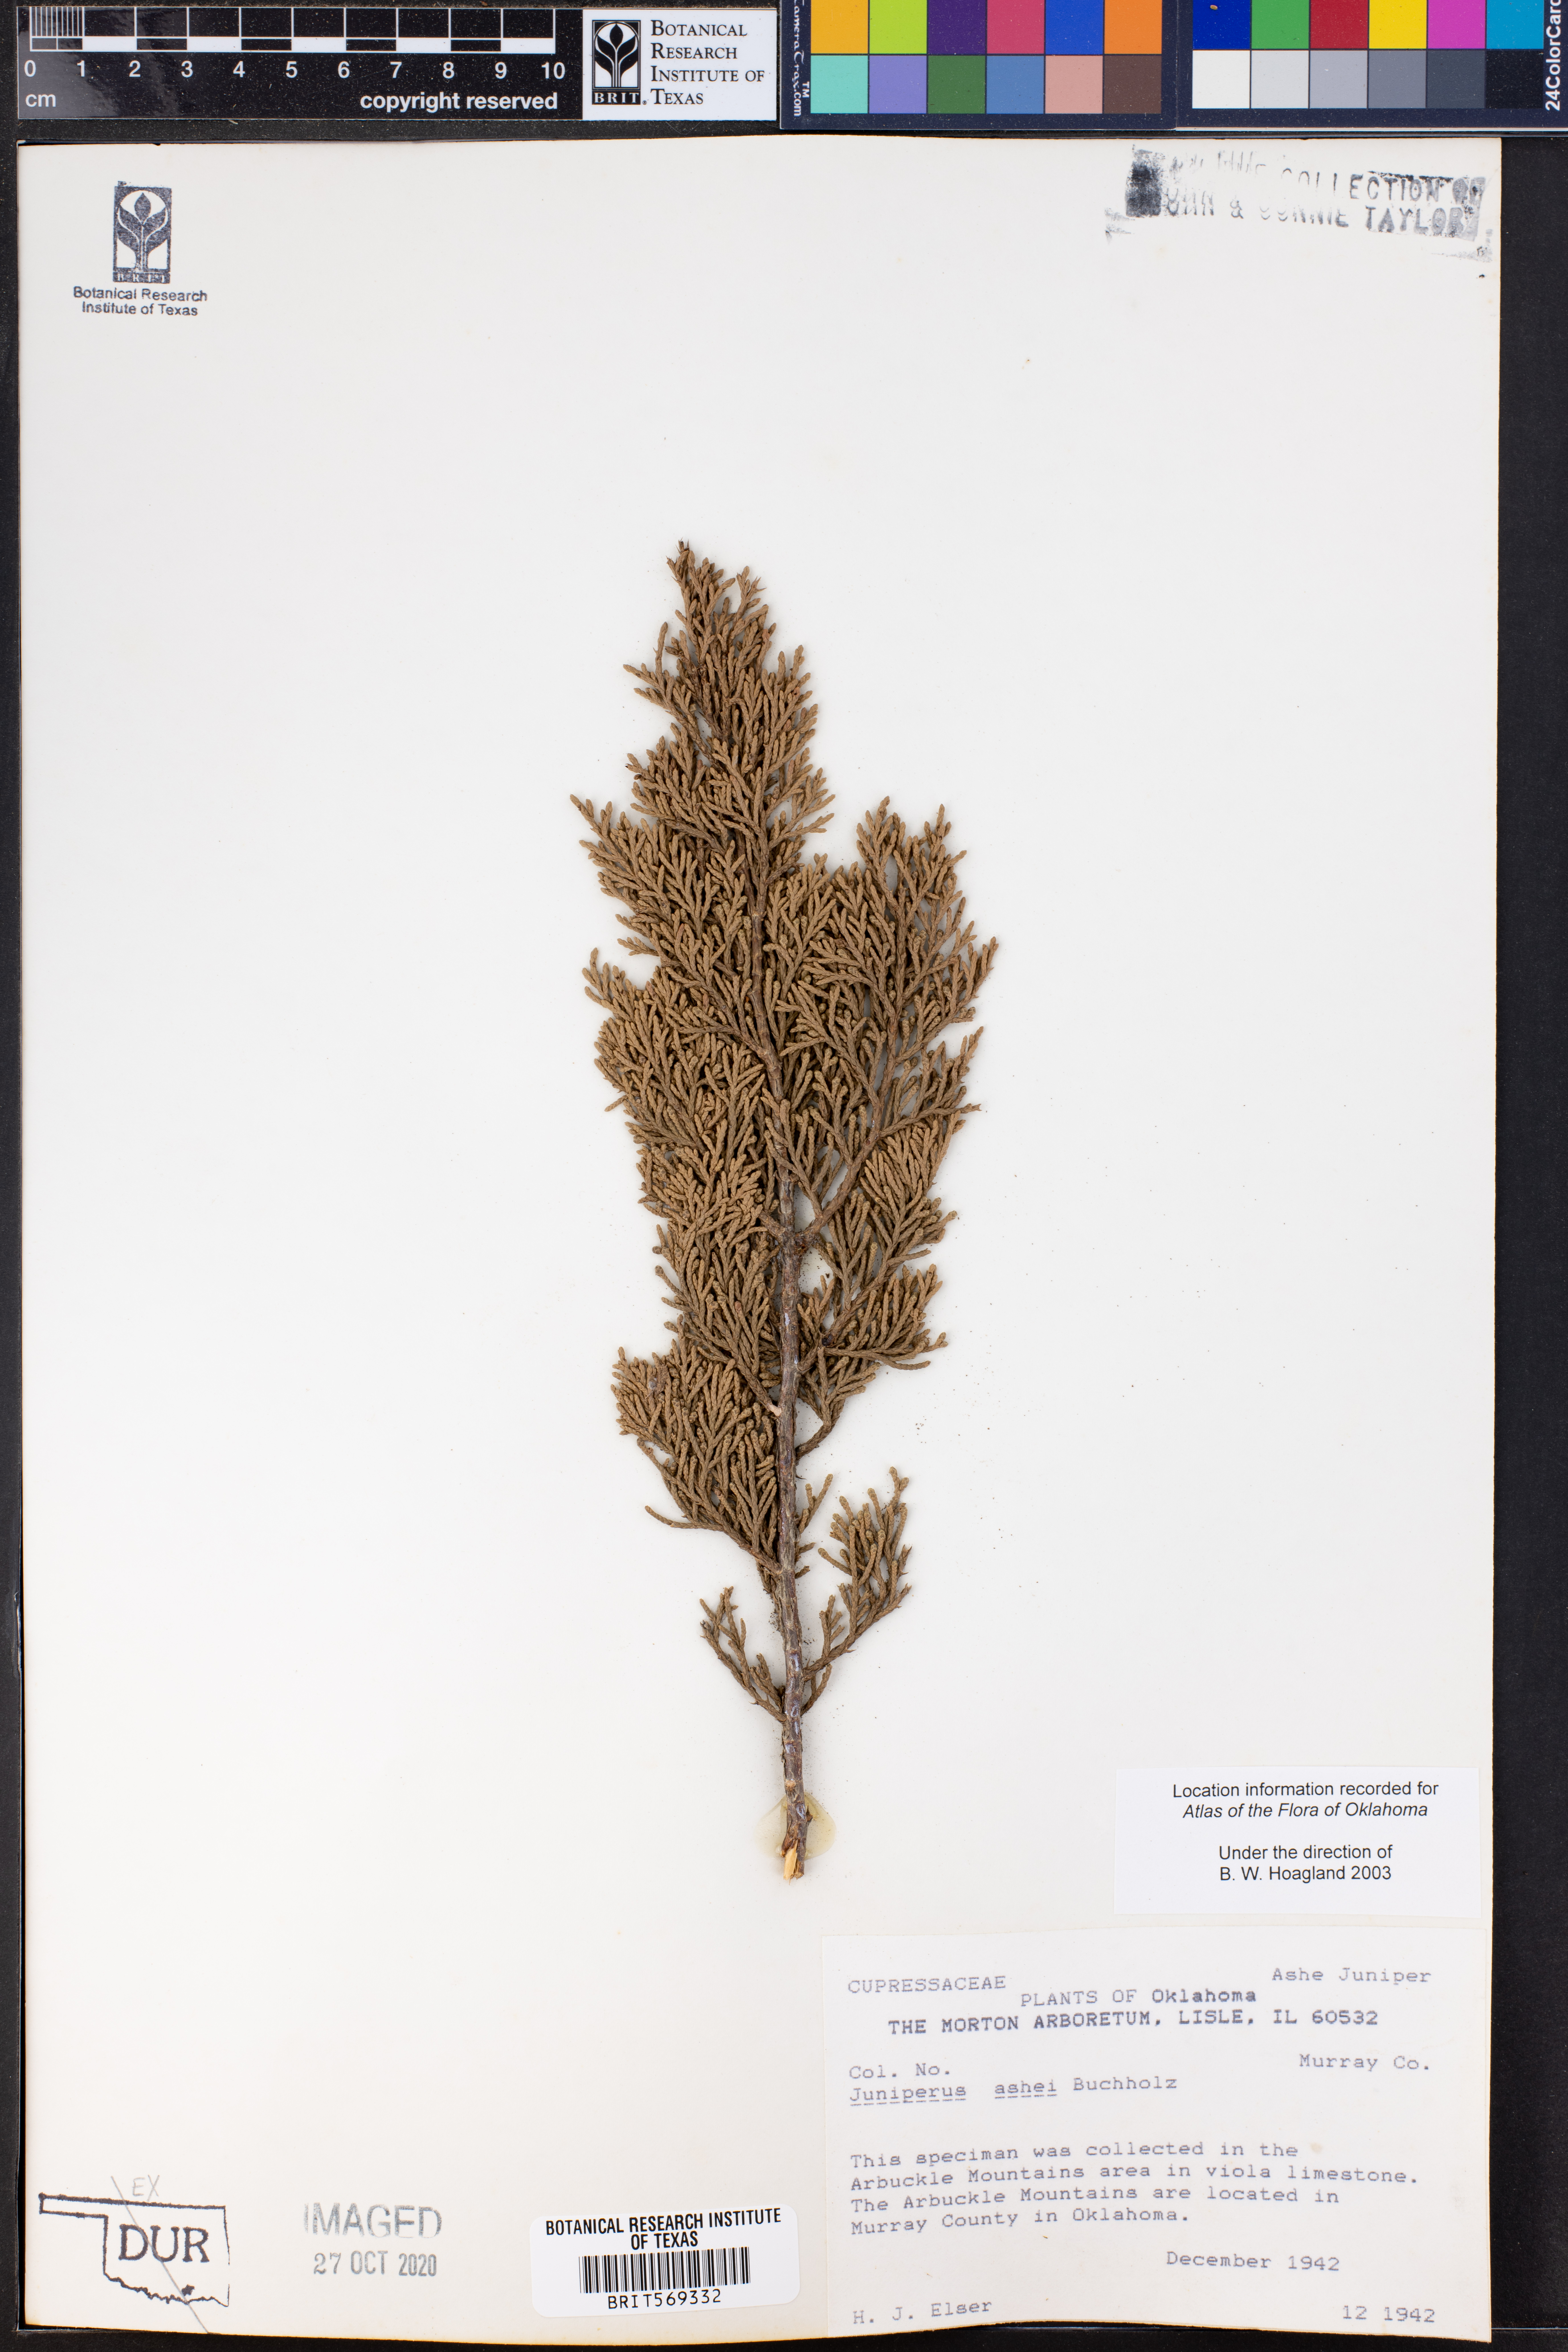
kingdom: Plantae
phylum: Tracheophyta
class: Pinopsida
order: Pinales
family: Cupressaceae
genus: Juniperus
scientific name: Juniperus ashei
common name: Mexican juniper
